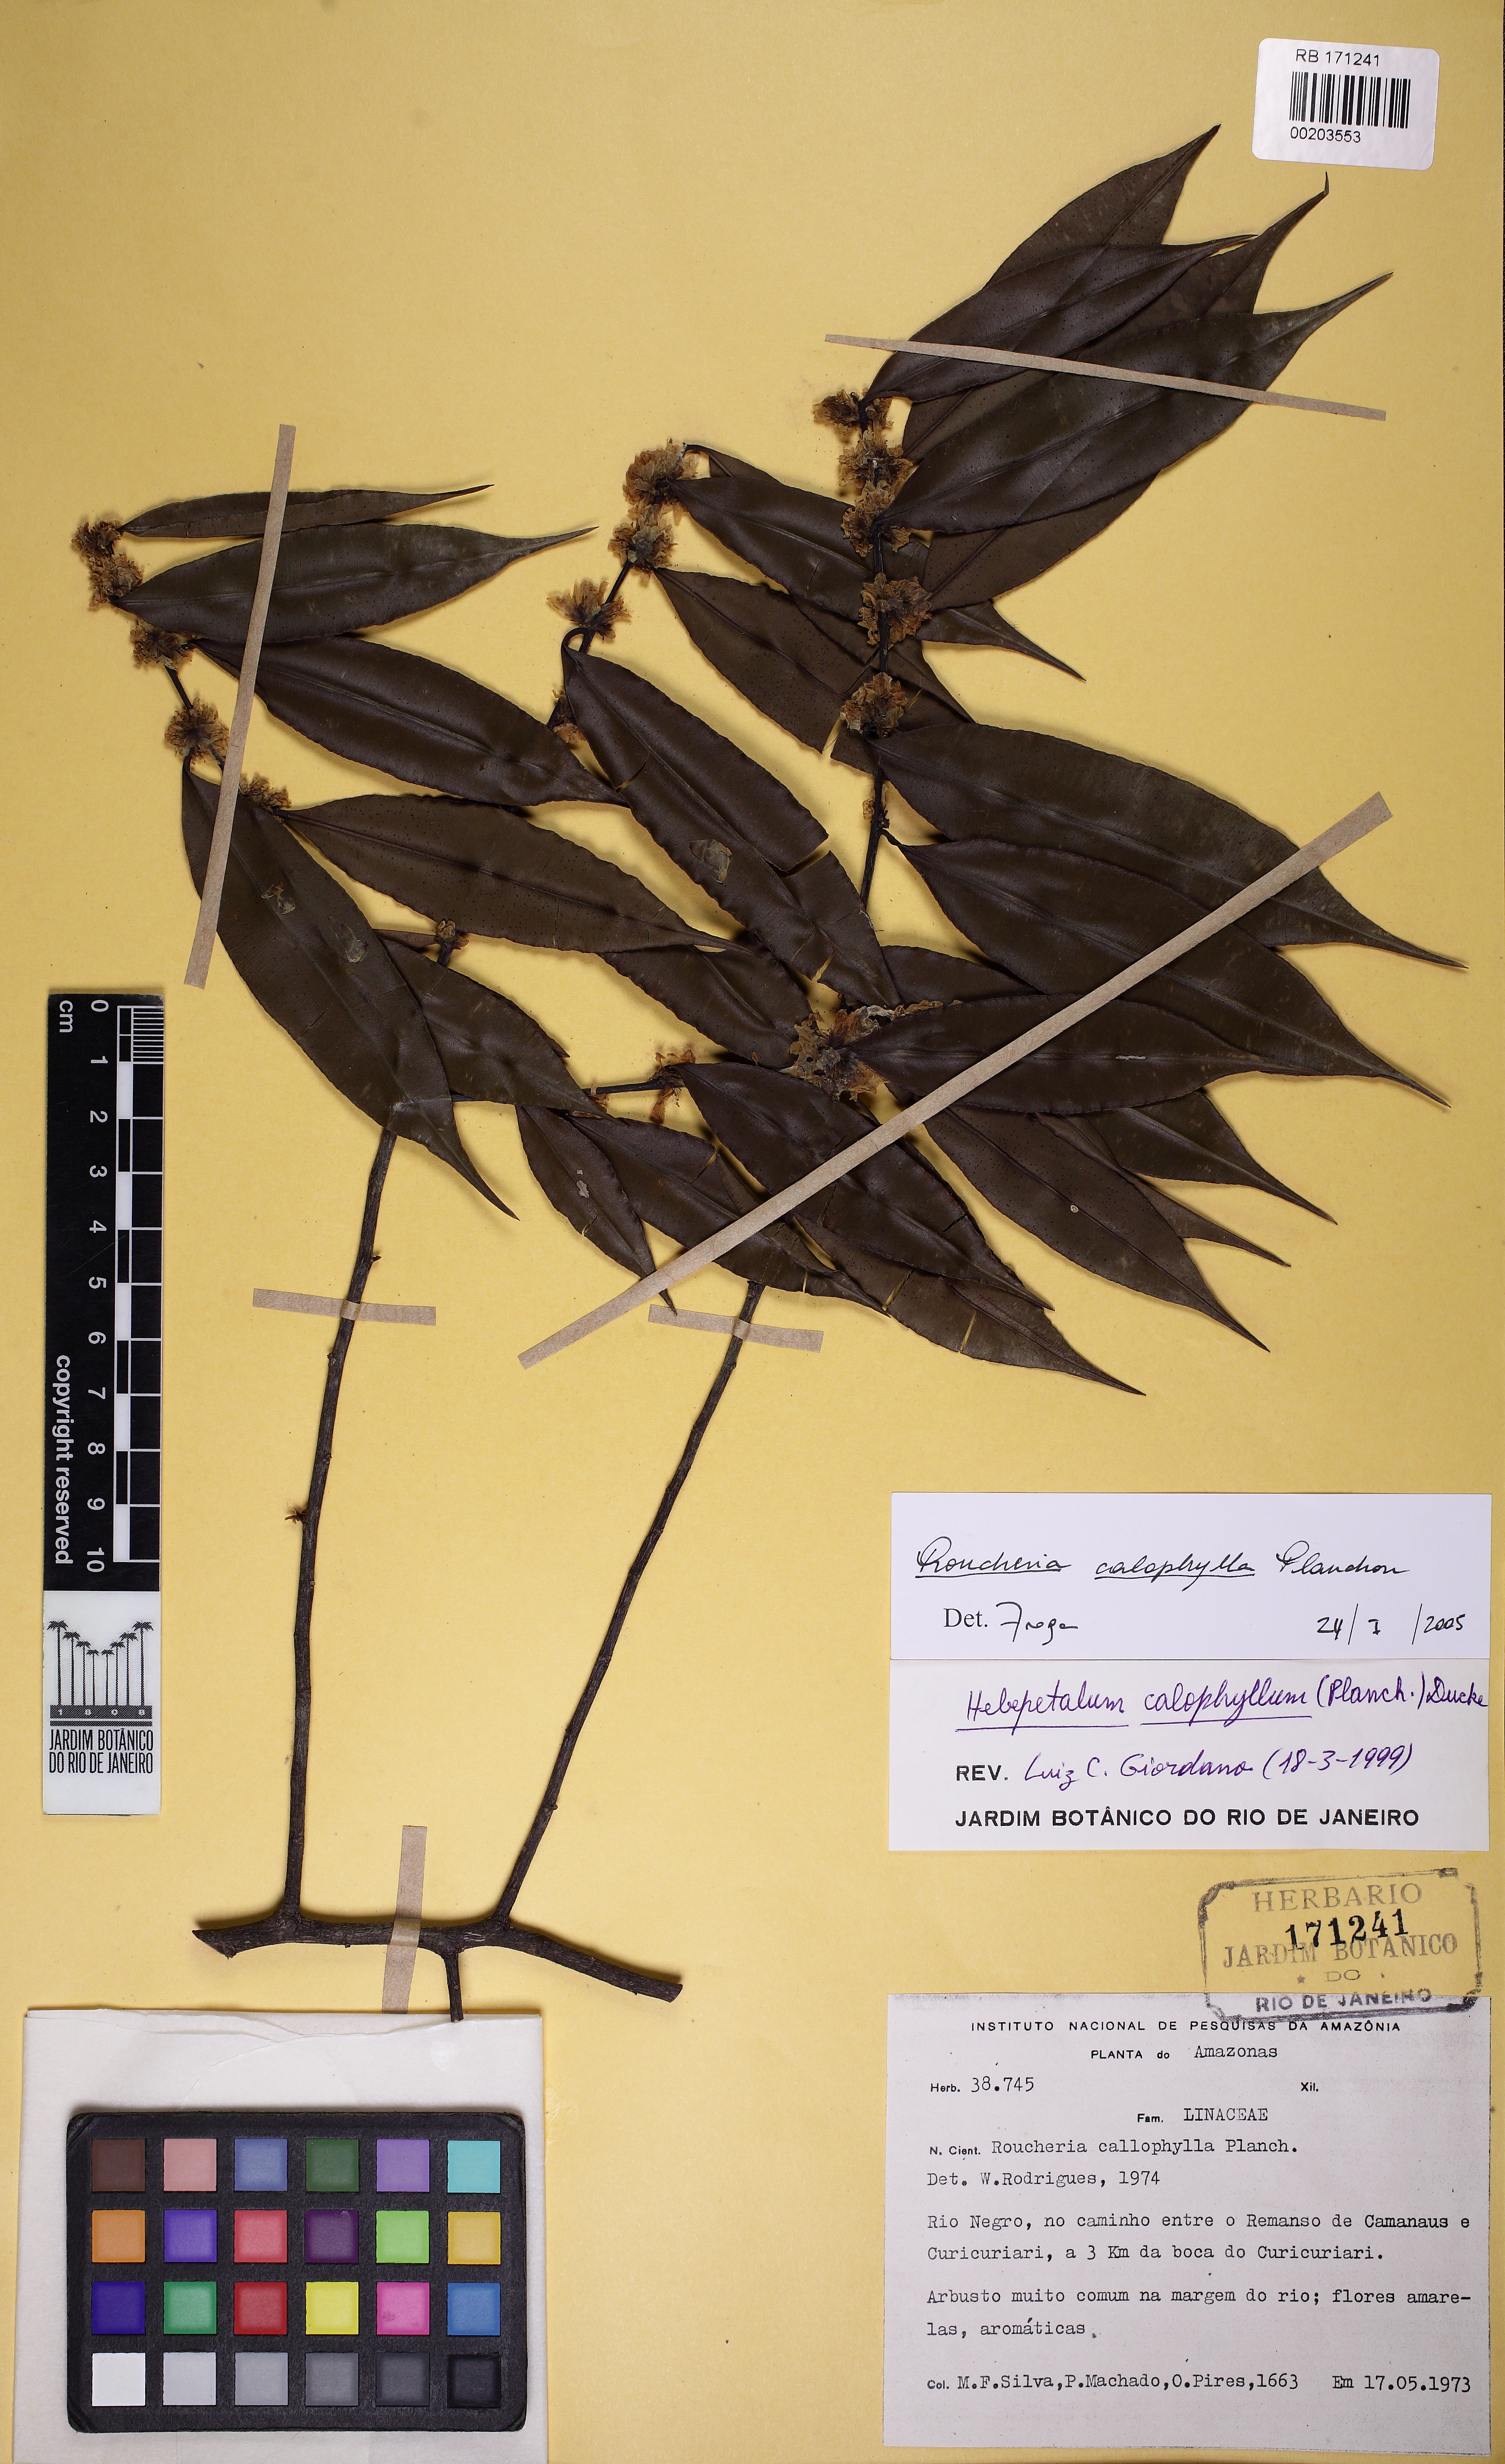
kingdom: Plantae
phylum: Tracheophyta
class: Magnoliopsida
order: Malpighiales
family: Linaceae
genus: Roucheria
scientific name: Roucheria calophylla
